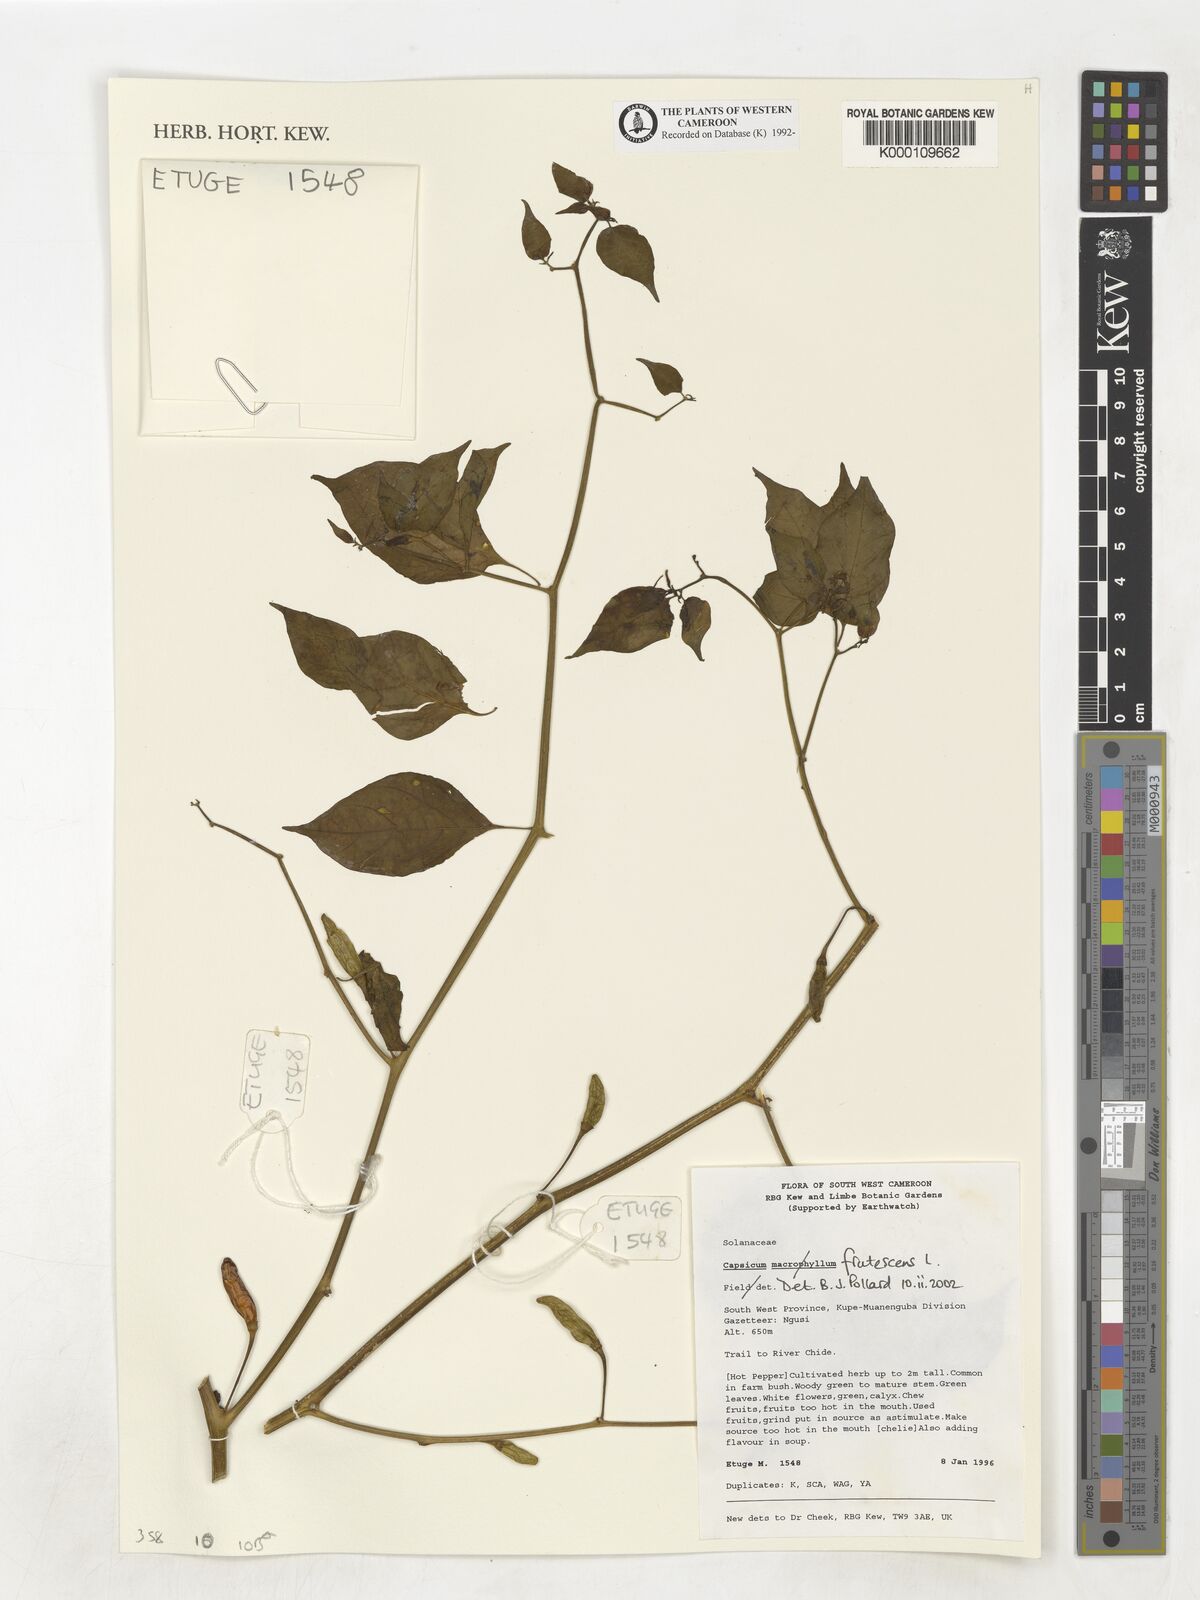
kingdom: Plantae
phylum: Tracheophyta
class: Magnoliopsida
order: Solanales
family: Solanaceae
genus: Capsicum
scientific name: Capsicum frutescens
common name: Bird pepper
